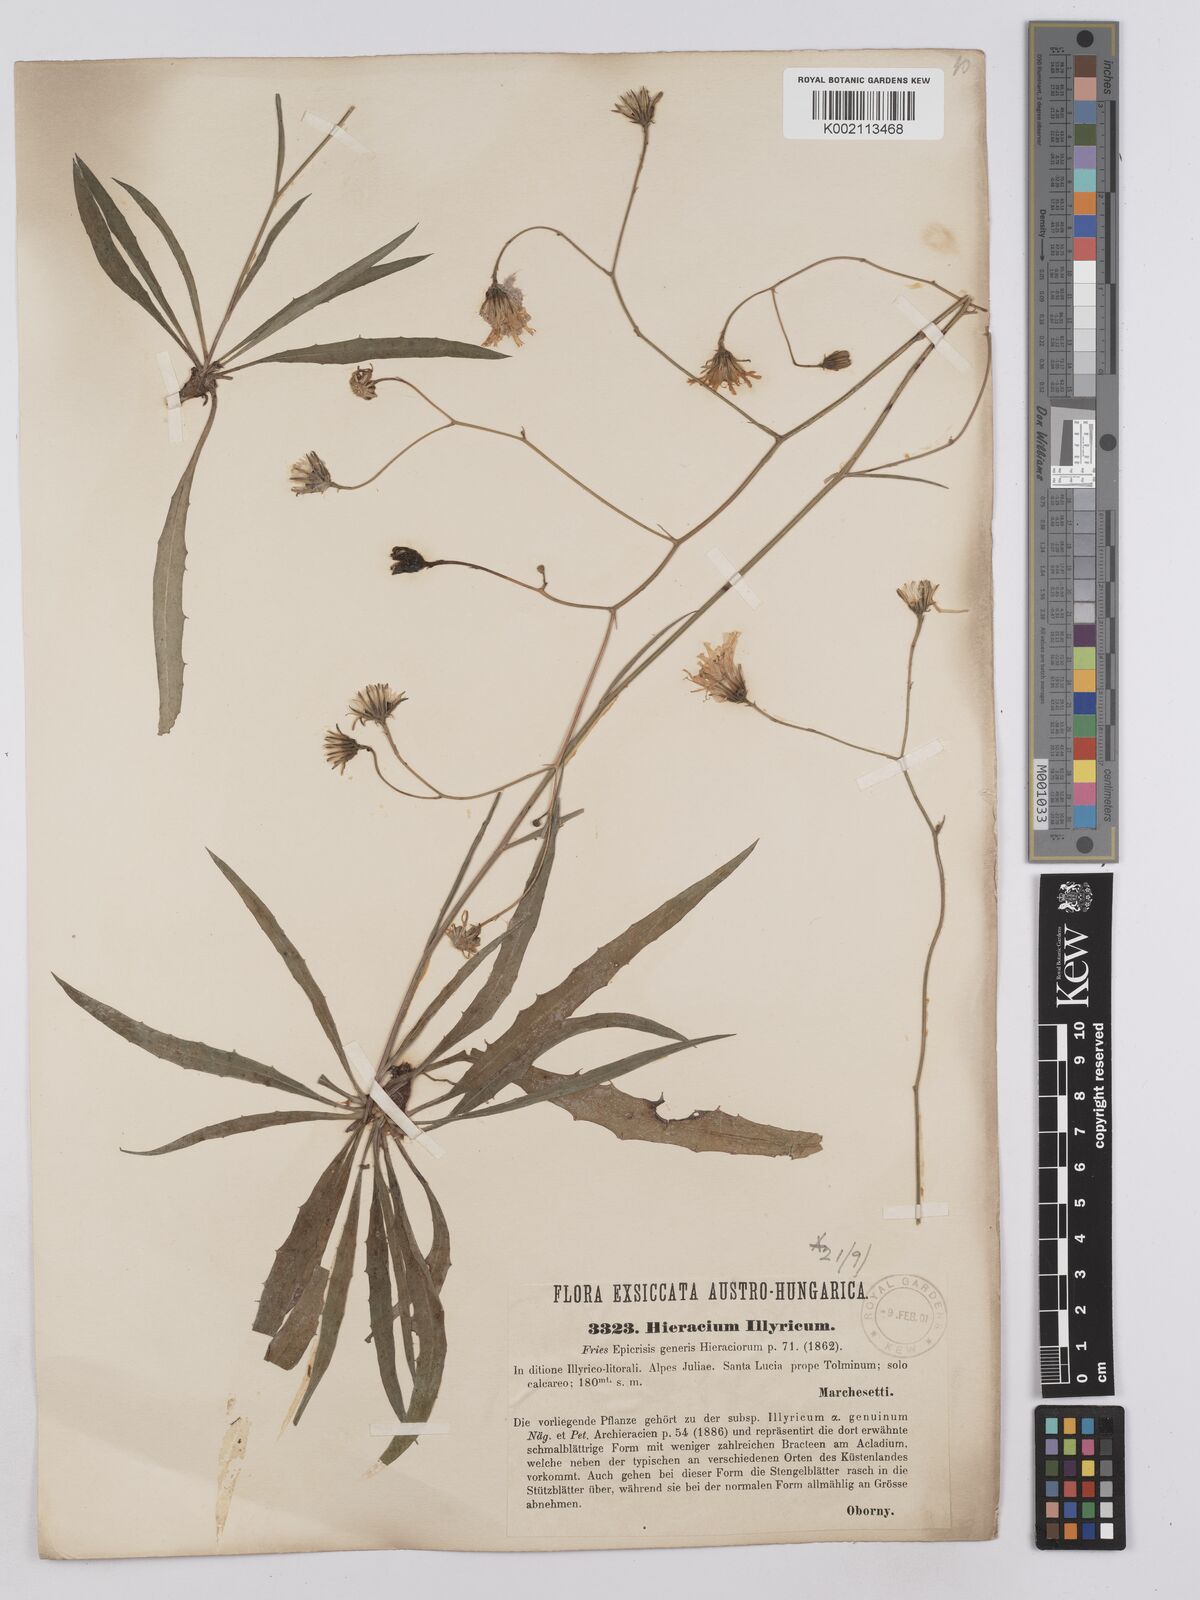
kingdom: Plantae
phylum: Tracheophyta
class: Magnoliopsida
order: Asterales
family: Asteraceae
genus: Hieracium
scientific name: Hieracium calcareum
